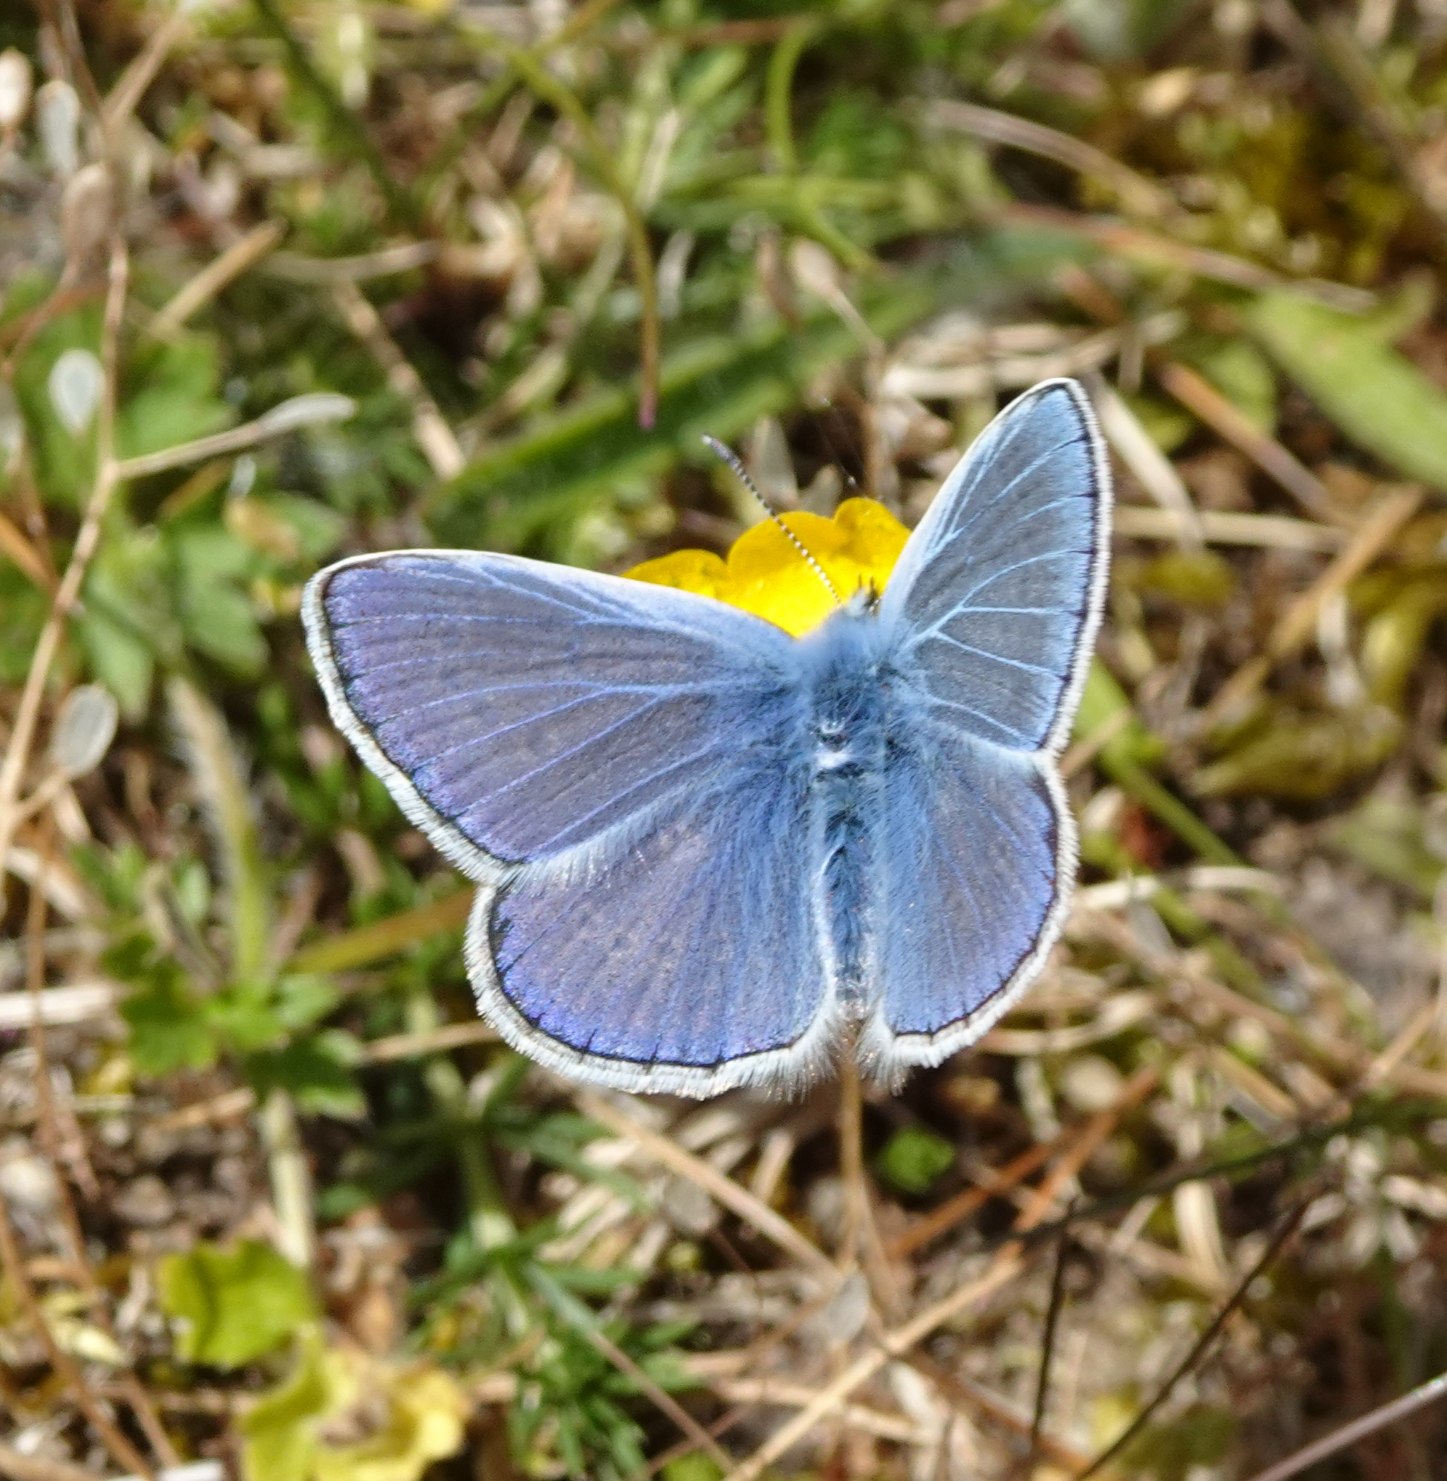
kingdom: Animalia
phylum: Arthropoda
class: Insecta
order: Lepidoptera
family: Lycaenidae
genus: Polyommatus
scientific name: Polyommatus icarus
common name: Almindelig blåfugl
